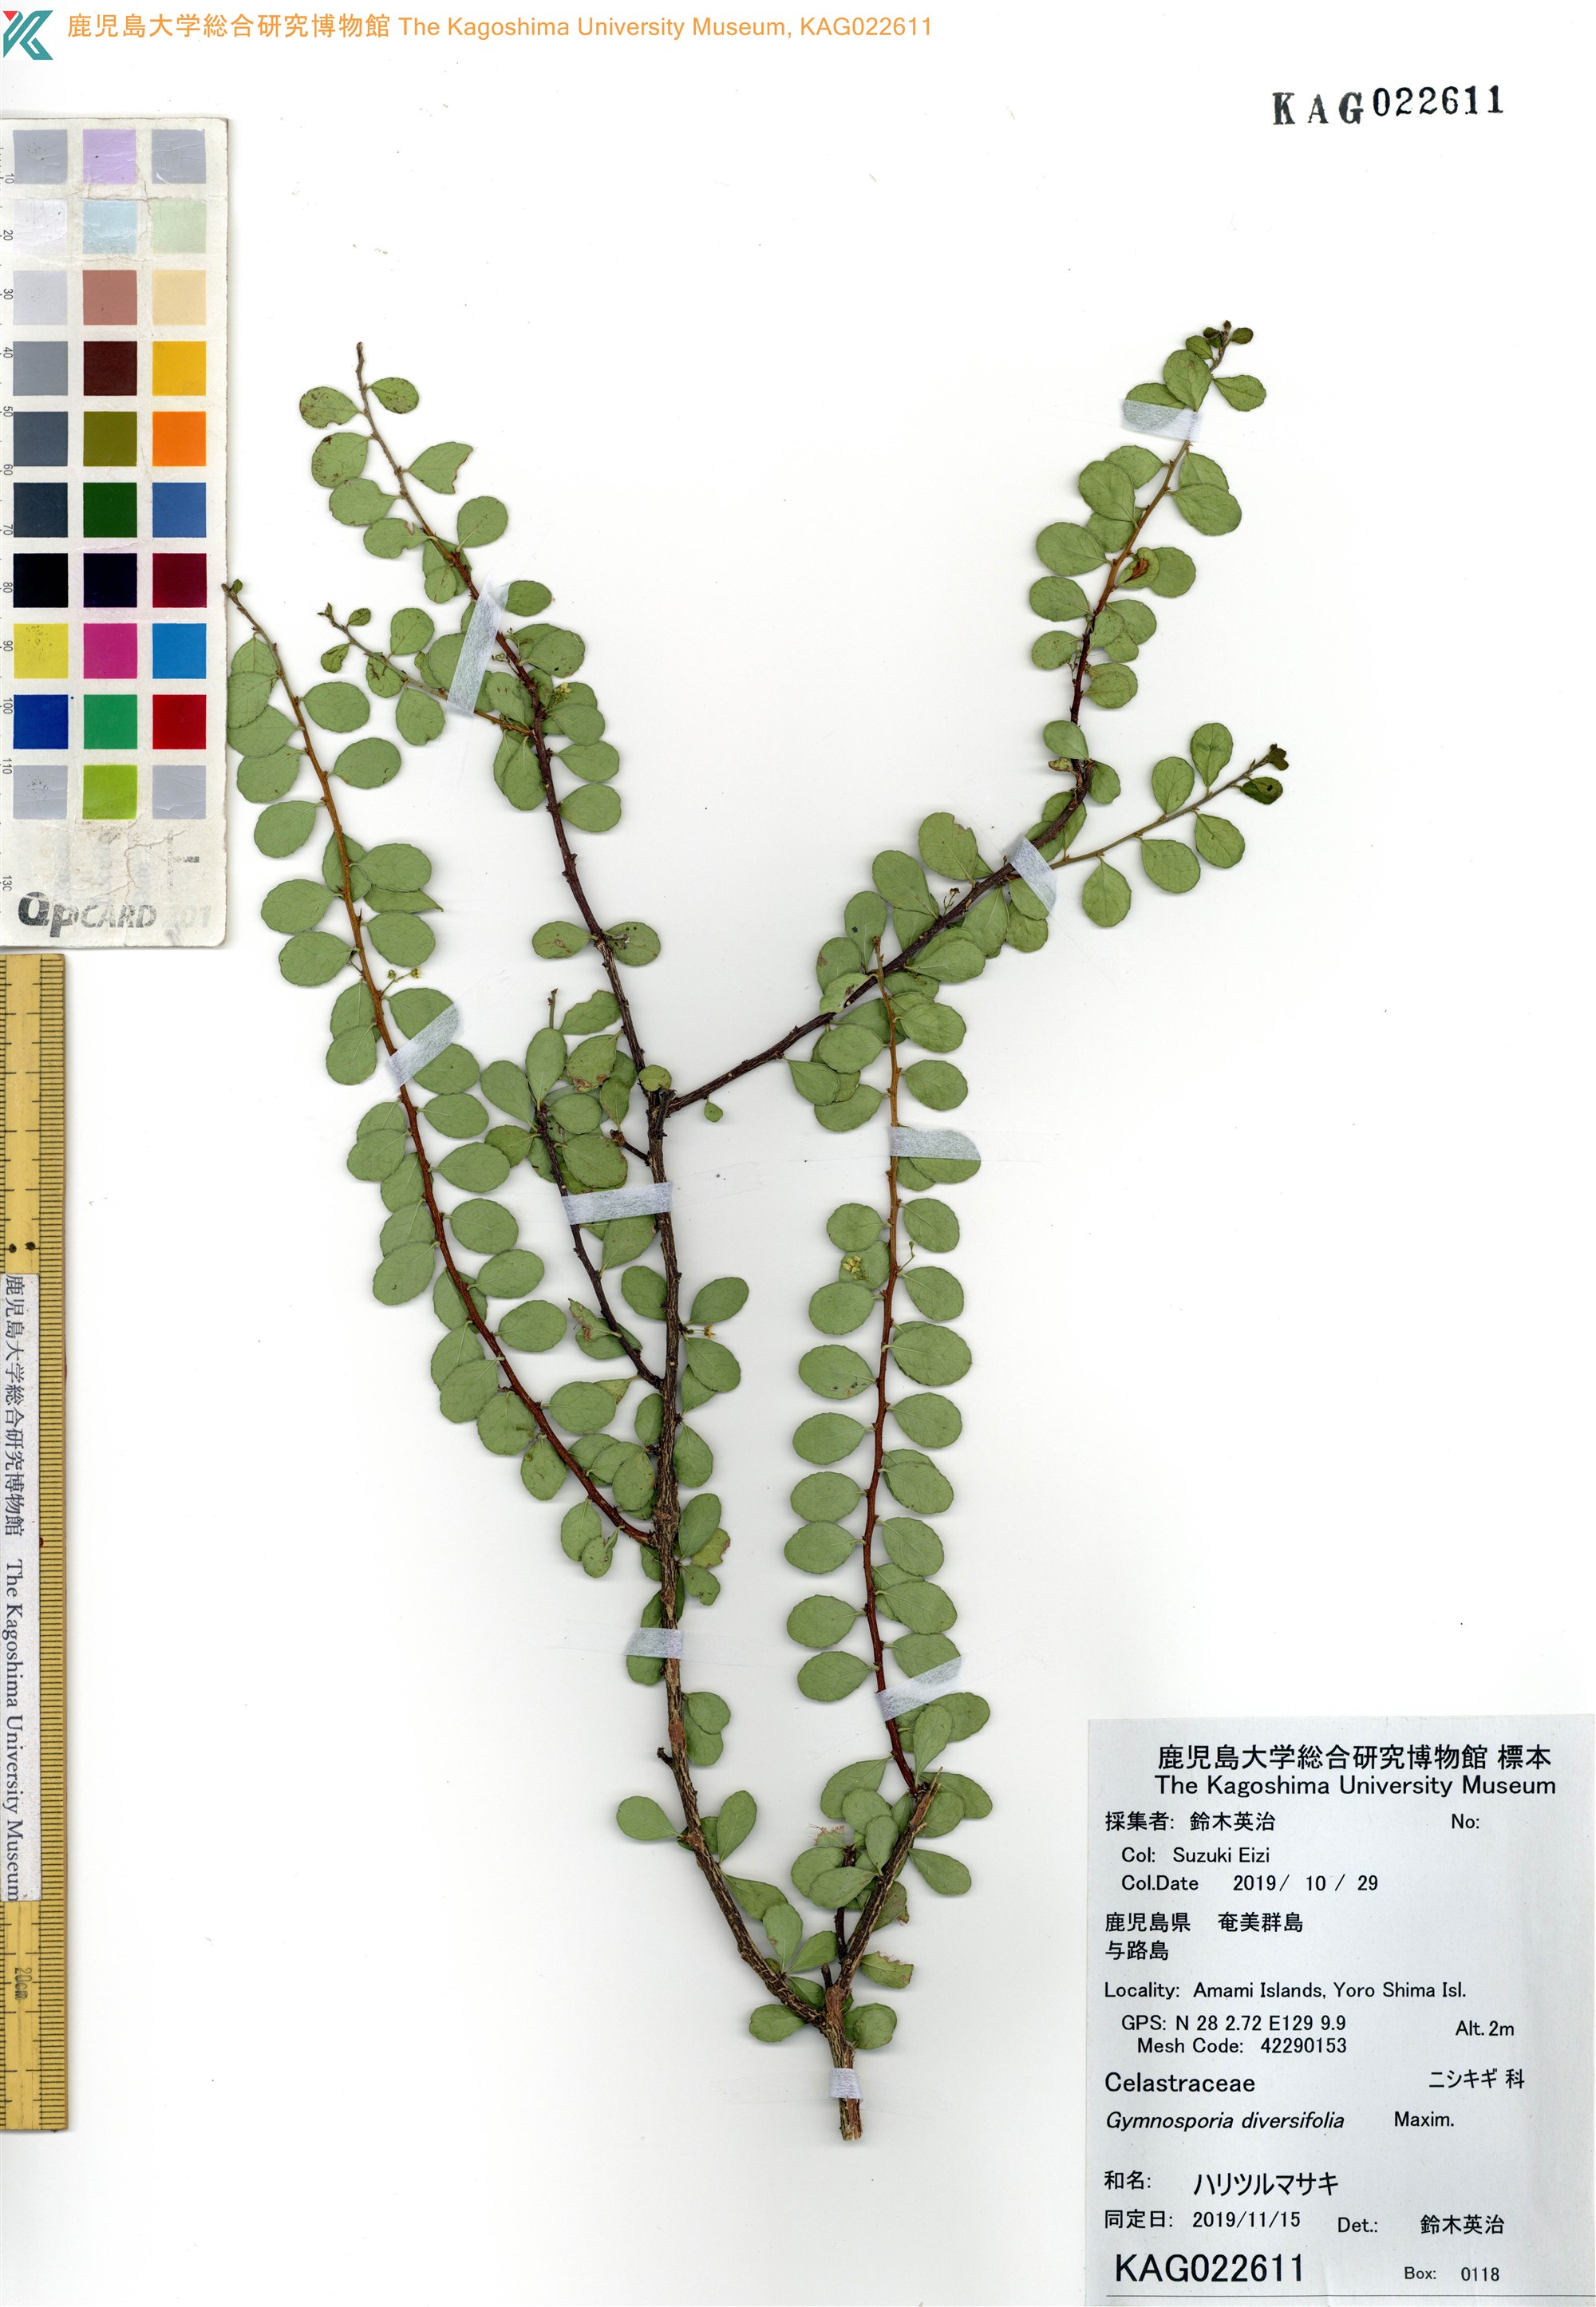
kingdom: Plantae
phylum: Tracheophyta
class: Magnoliopsida
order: Celastrales
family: Celastraceae
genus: Gymnosporia
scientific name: Gymnosporia diversifolia
